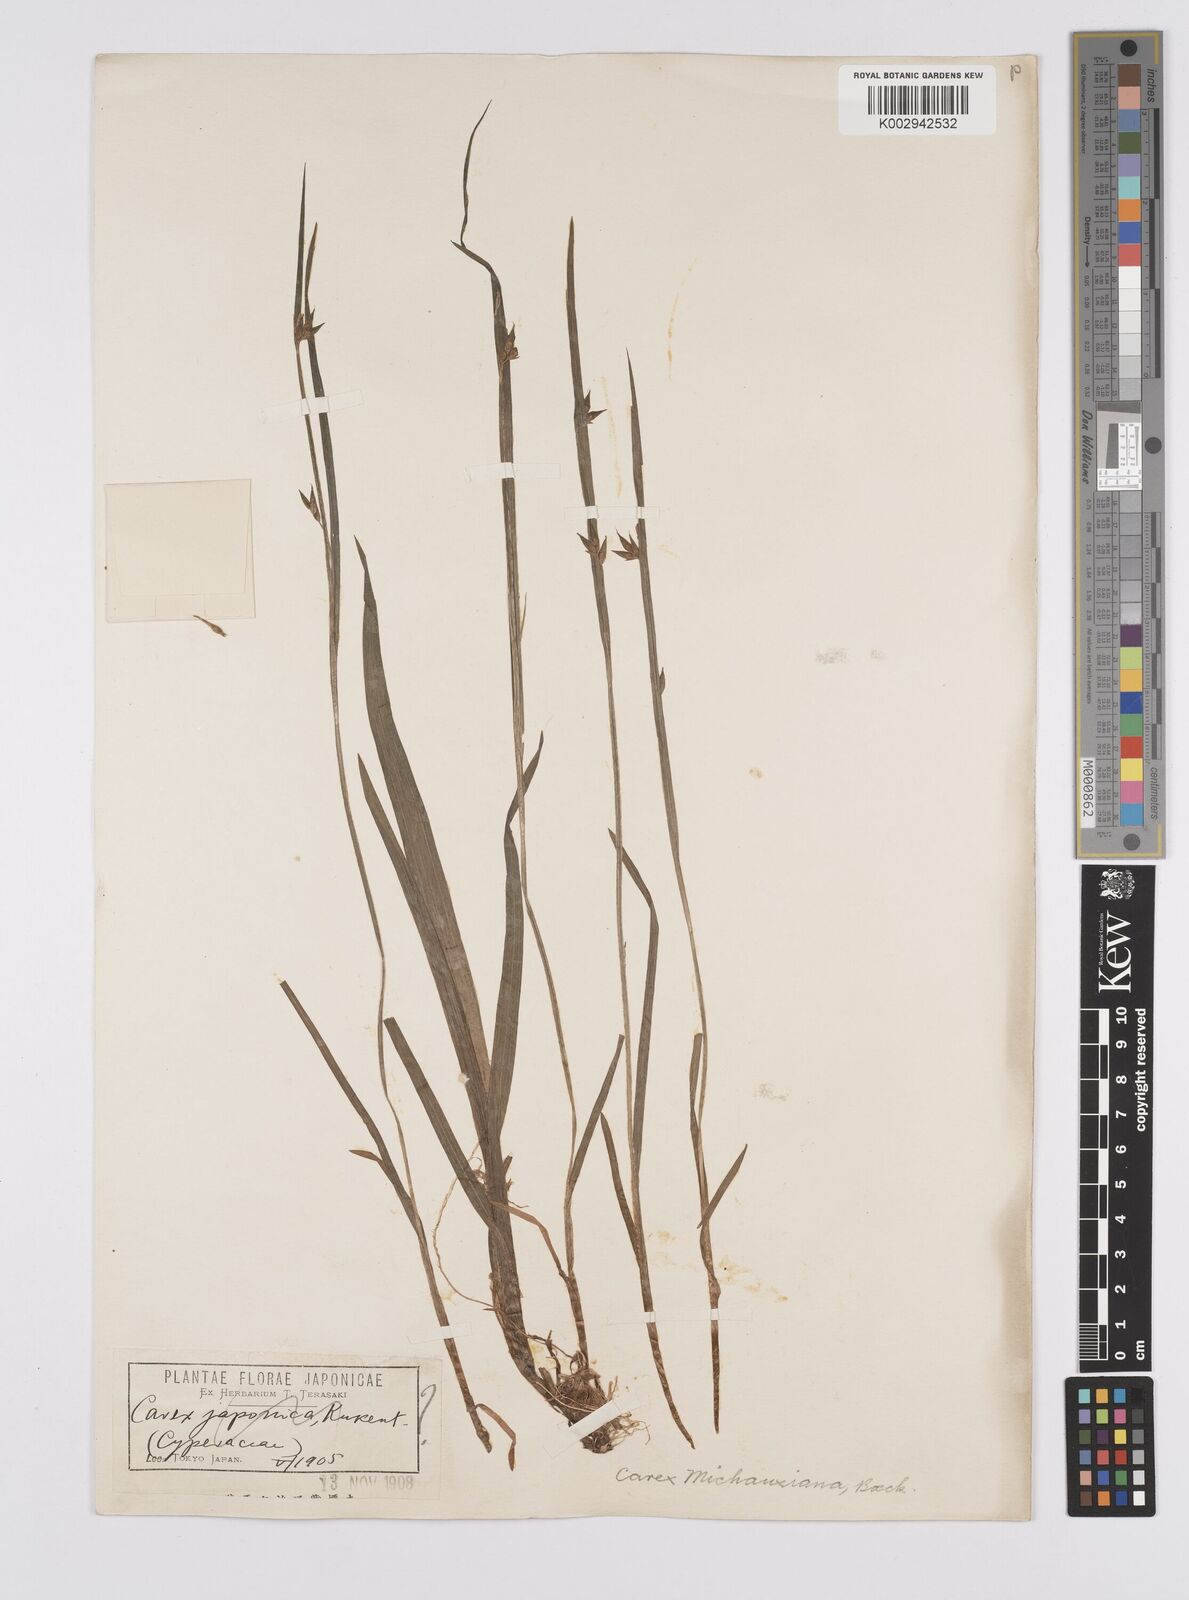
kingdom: Plantae
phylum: Tracheophyta
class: Liliopsida
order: Poales
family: Cyperaceae
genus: Carex
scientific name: Carex michauxiana
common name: Michaux's sedge
